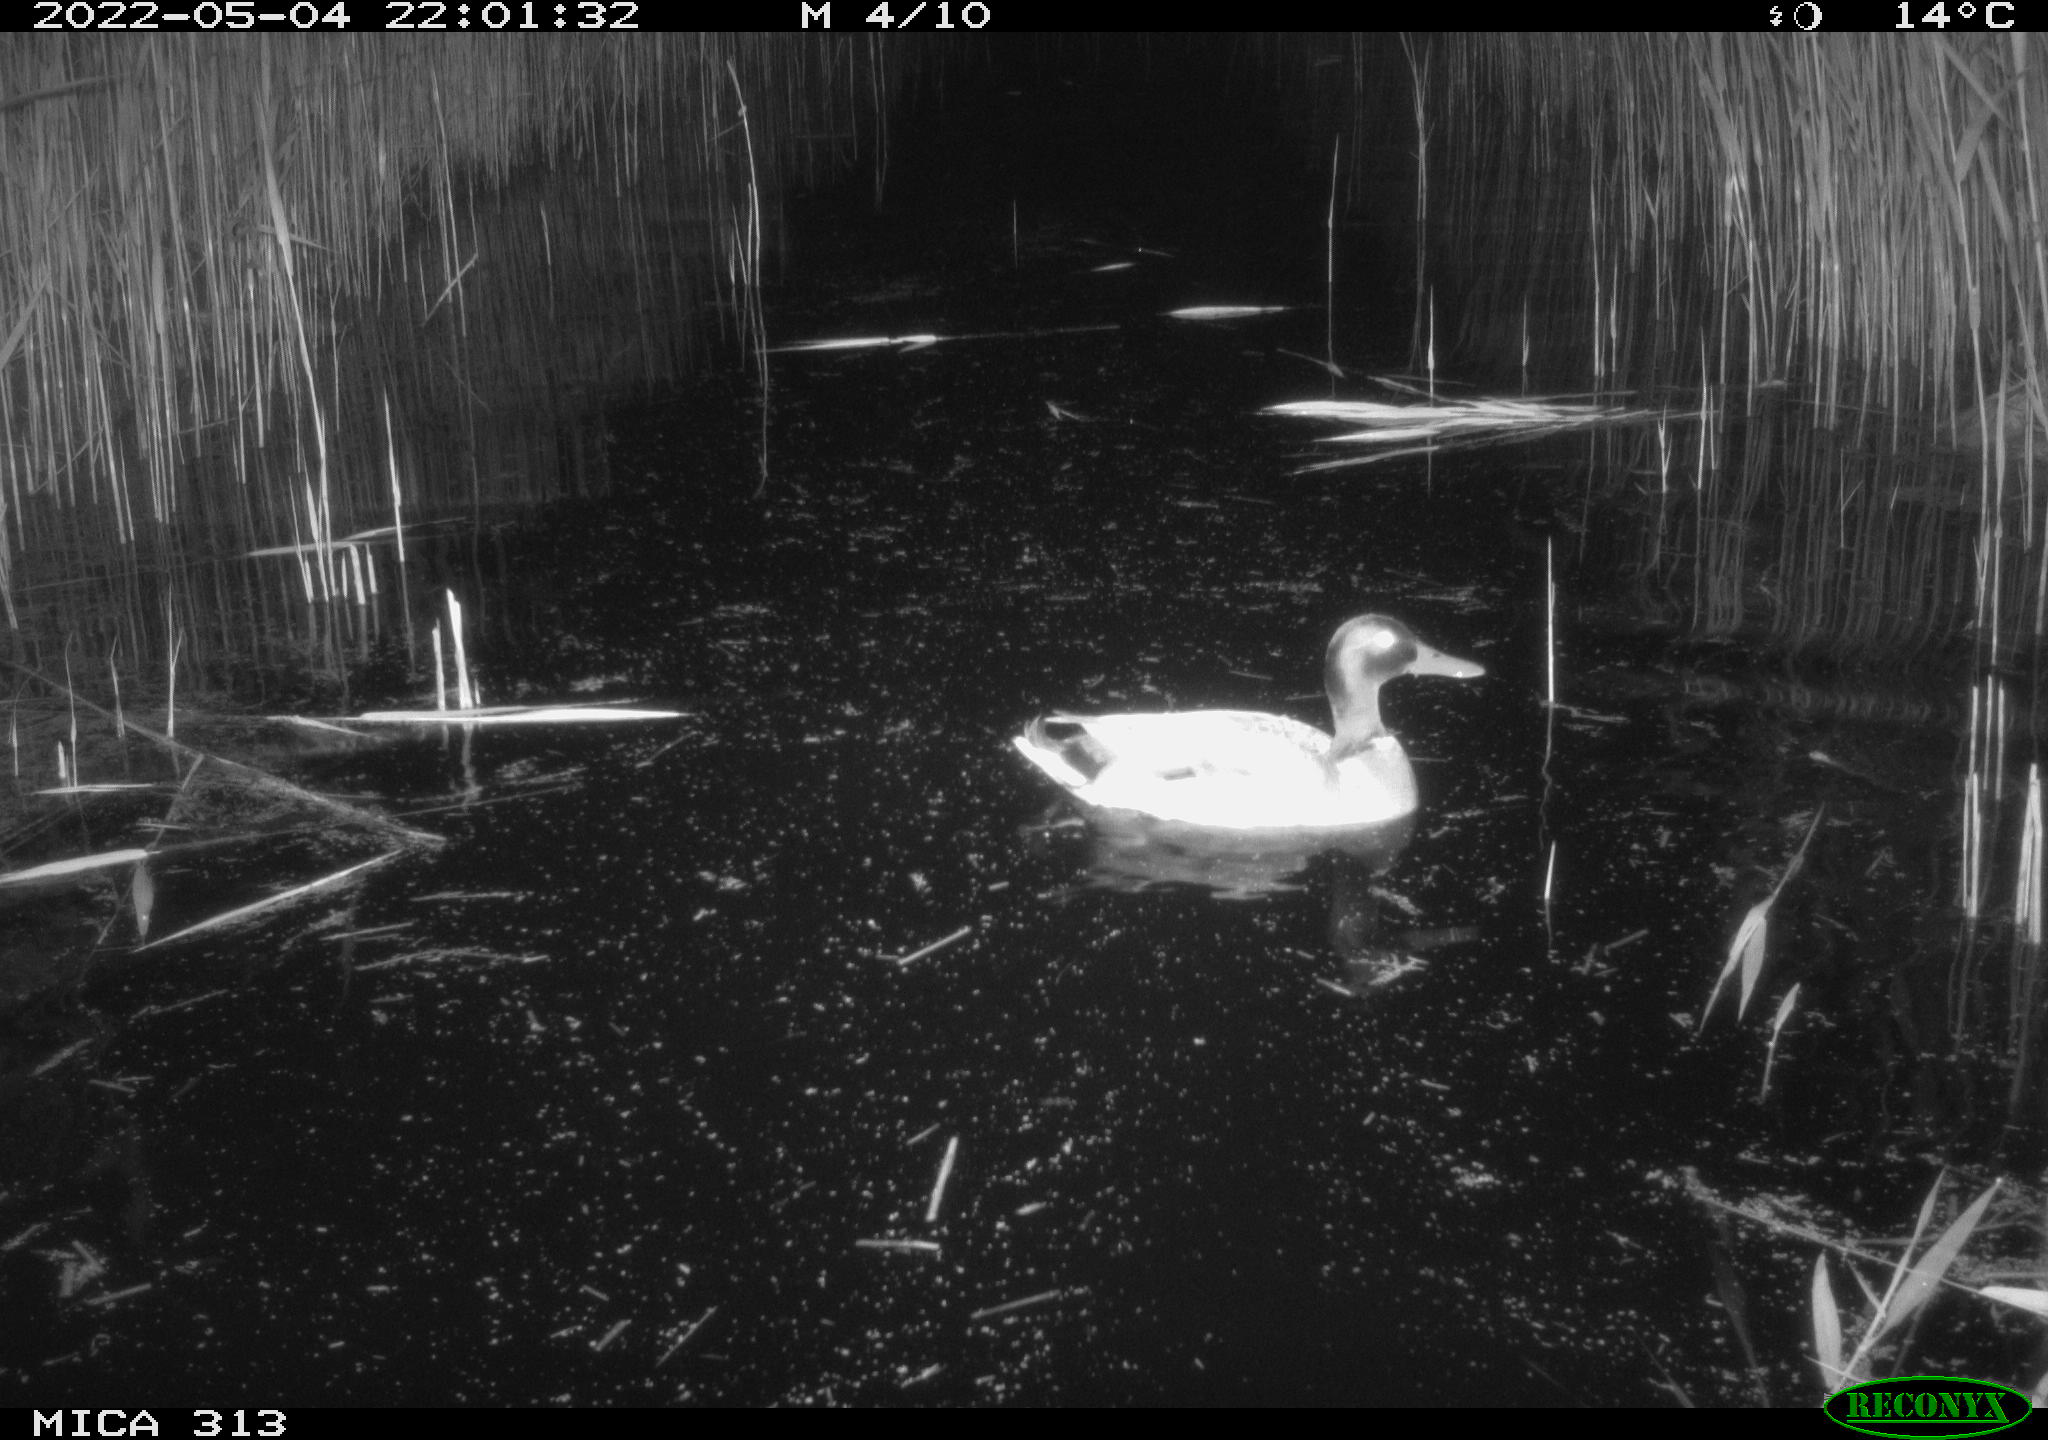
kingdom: Animalia
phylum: Chordata
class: Aves
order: Anseriformes
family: Anatidae
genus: Anas
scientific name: Anas platyrhynchos
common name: Mallard
